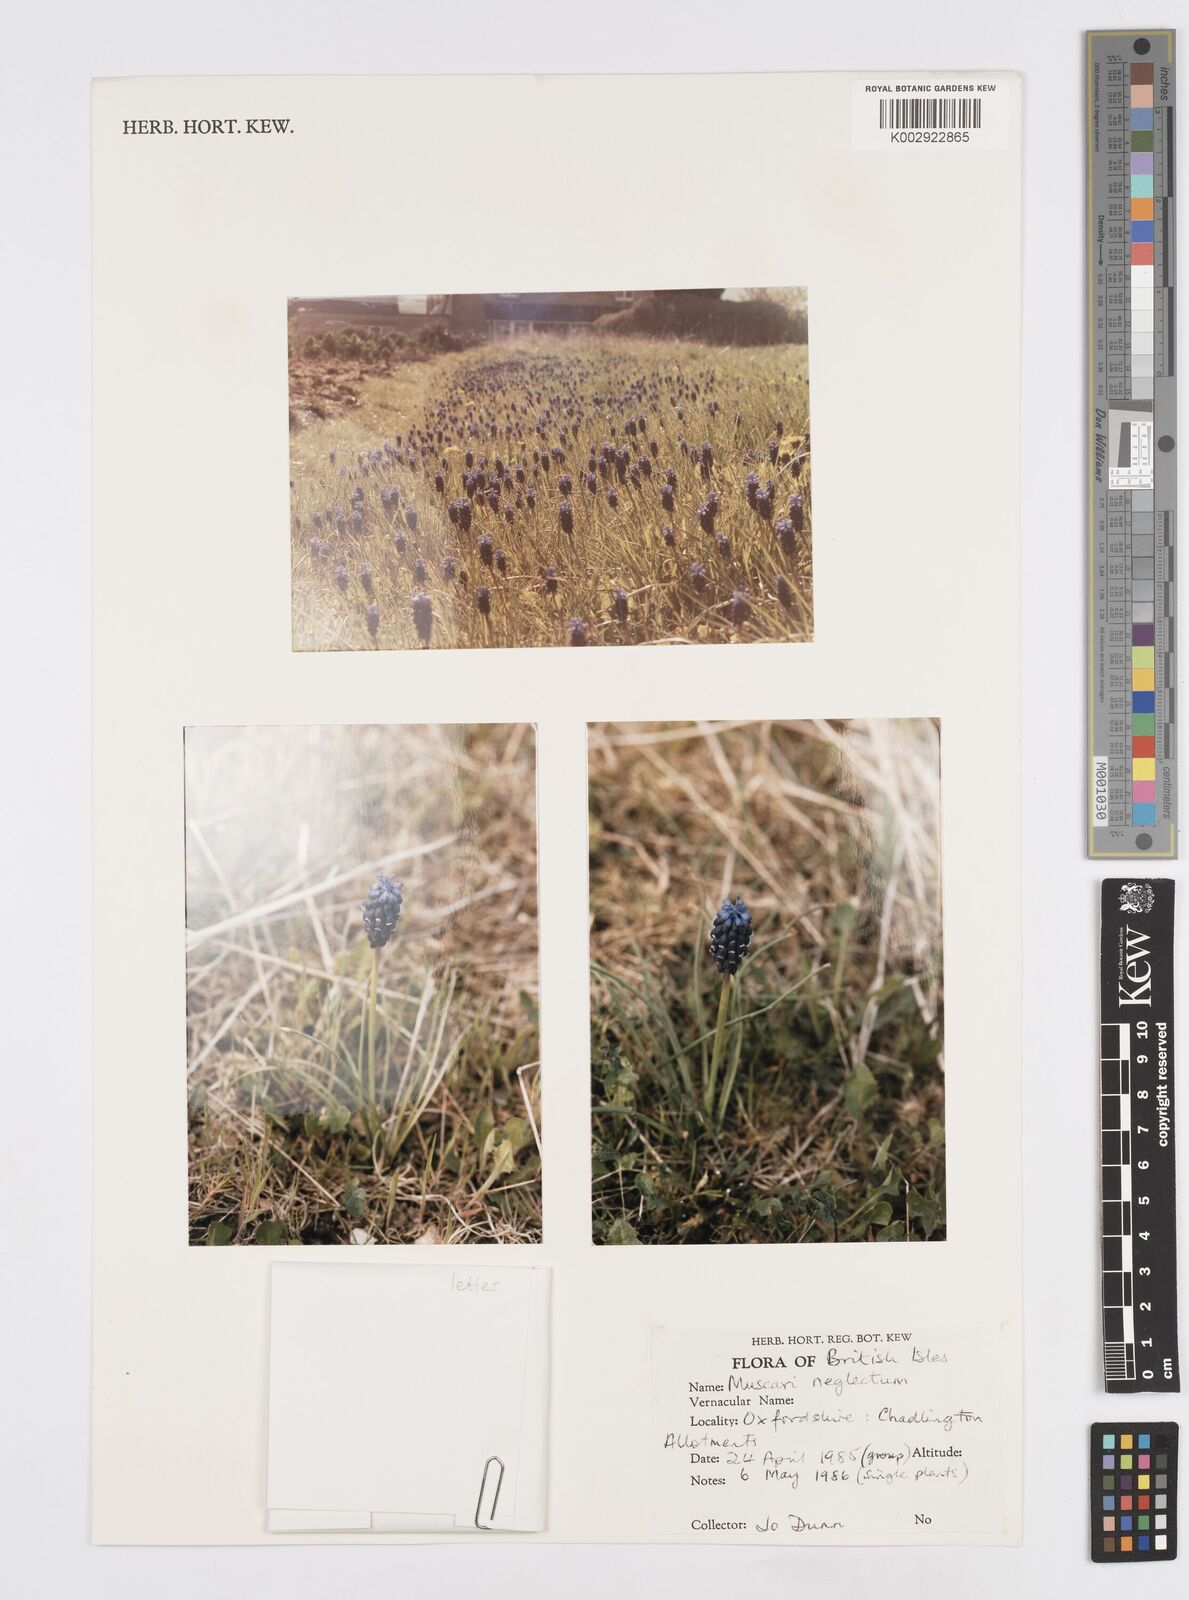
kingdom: Plantae
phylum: Tracheophyta
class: Liliopsida
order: Asparagales
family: Asparagaceae
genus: Muscari
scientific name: Muscari neglectum
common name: Grape-hyacinth
